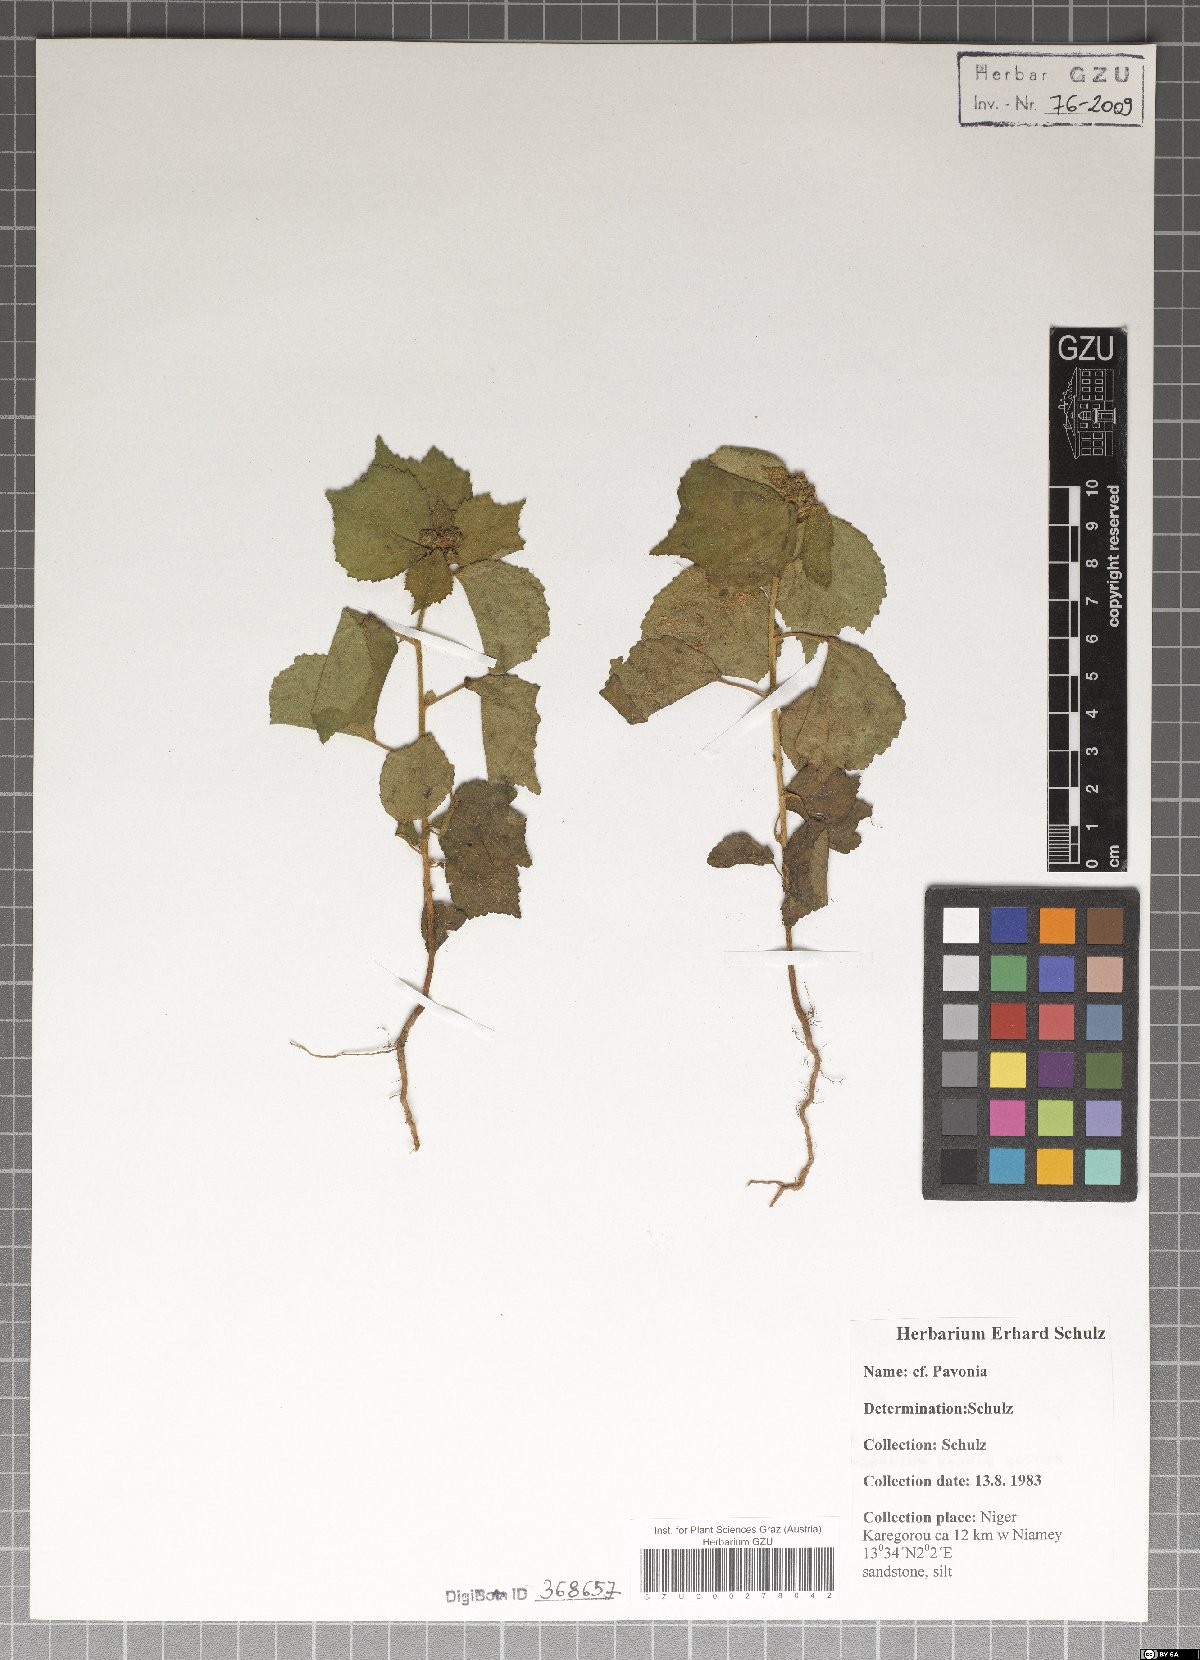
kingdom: Plantae
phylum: Tracheophyta
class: Magnoliopsida
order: Malvales
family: Malvaceae
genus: Pavonia
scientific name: Pavonia
